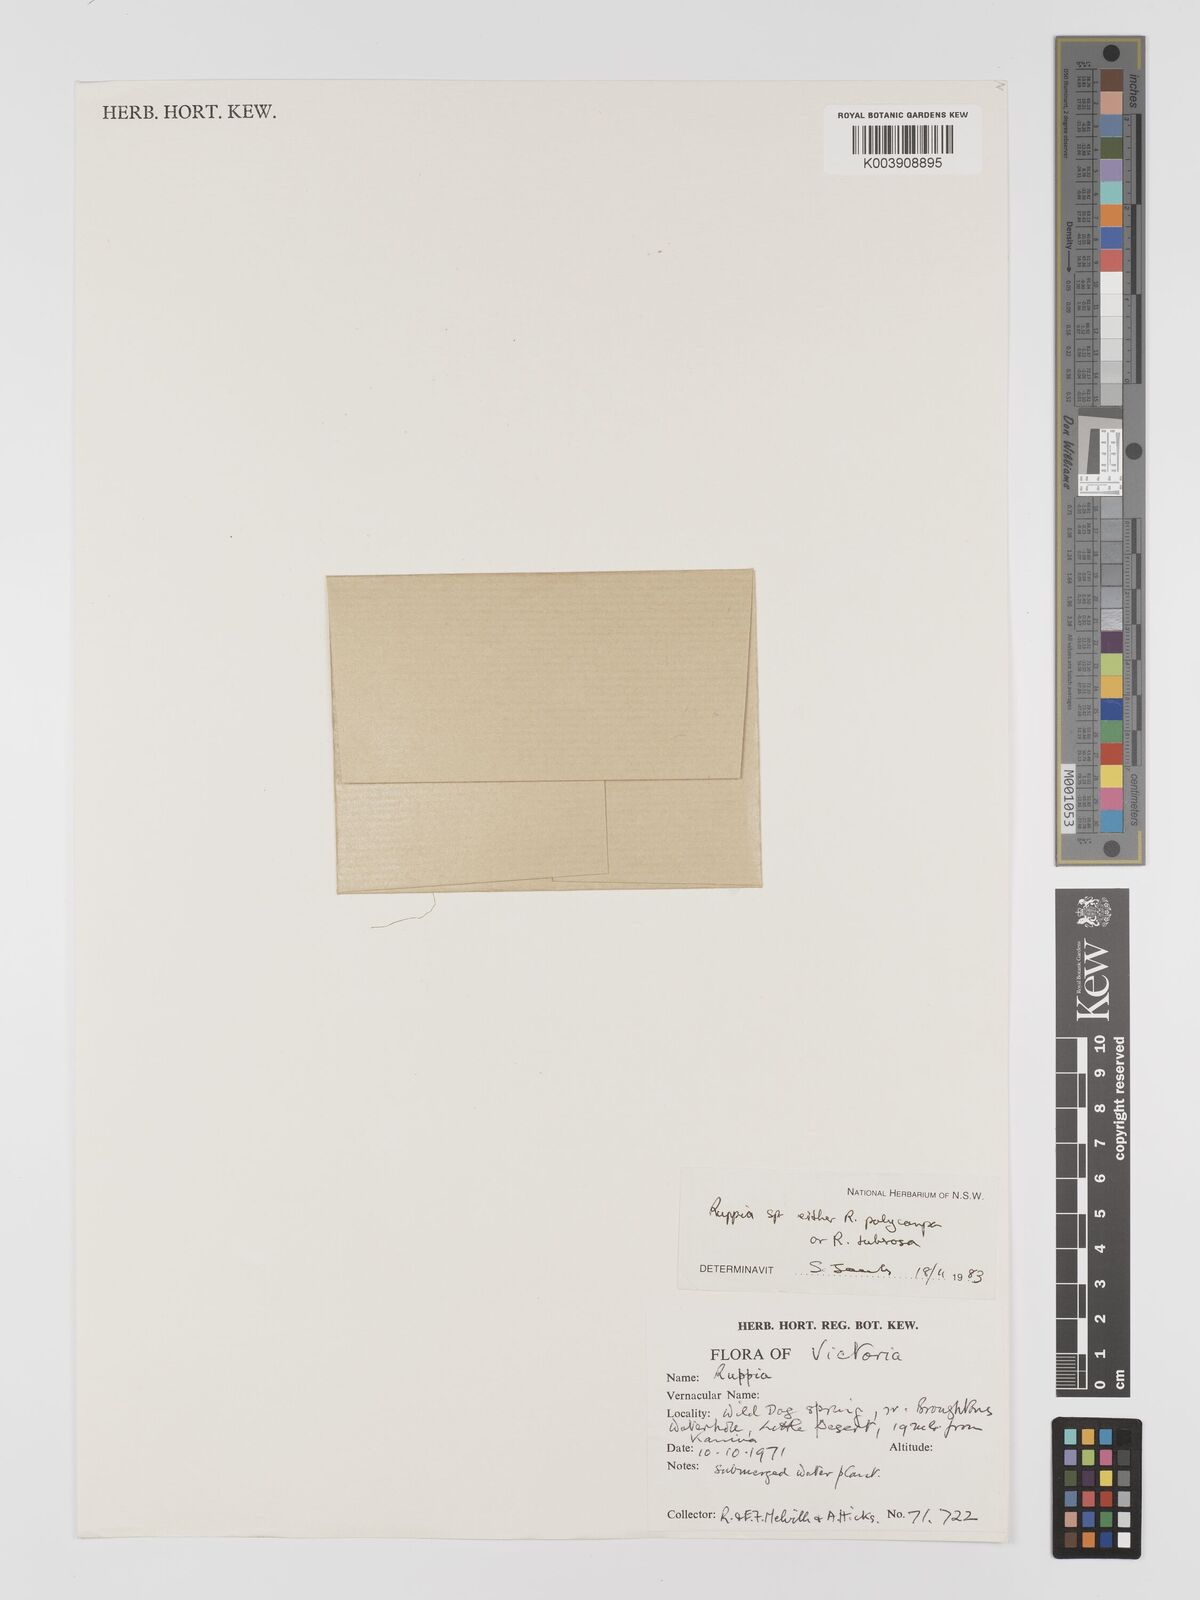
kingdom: Plantae
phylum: Tracheophyta
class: Liliopsida
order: Alismatales
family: Ruppiaceae
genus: Ruppia
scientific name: Ruppia
